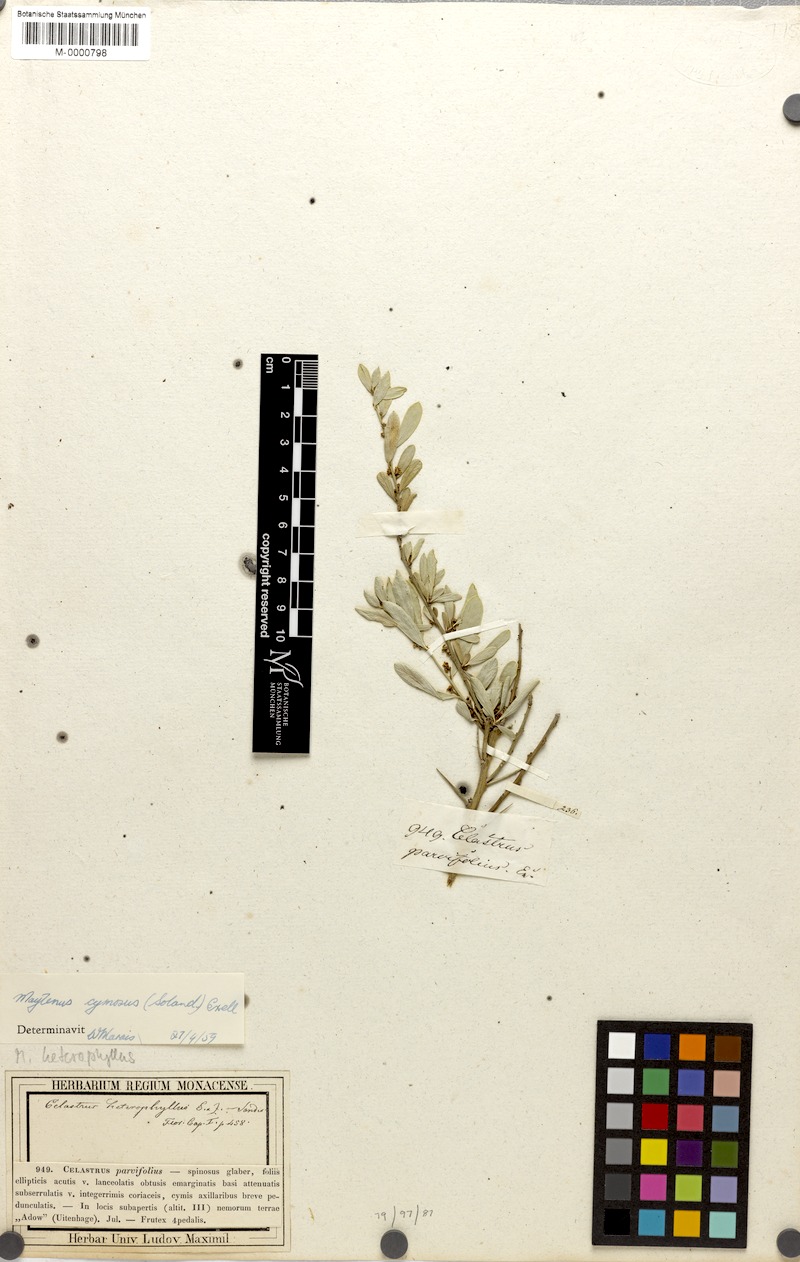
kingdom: Plantae
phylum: Tracheophyta
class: Magnoliopsida
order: Celastrales
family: Celastraceae
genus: Gymnosporia
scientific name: Gymnosporia heterophylla
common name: Angle-stem spikethorn
